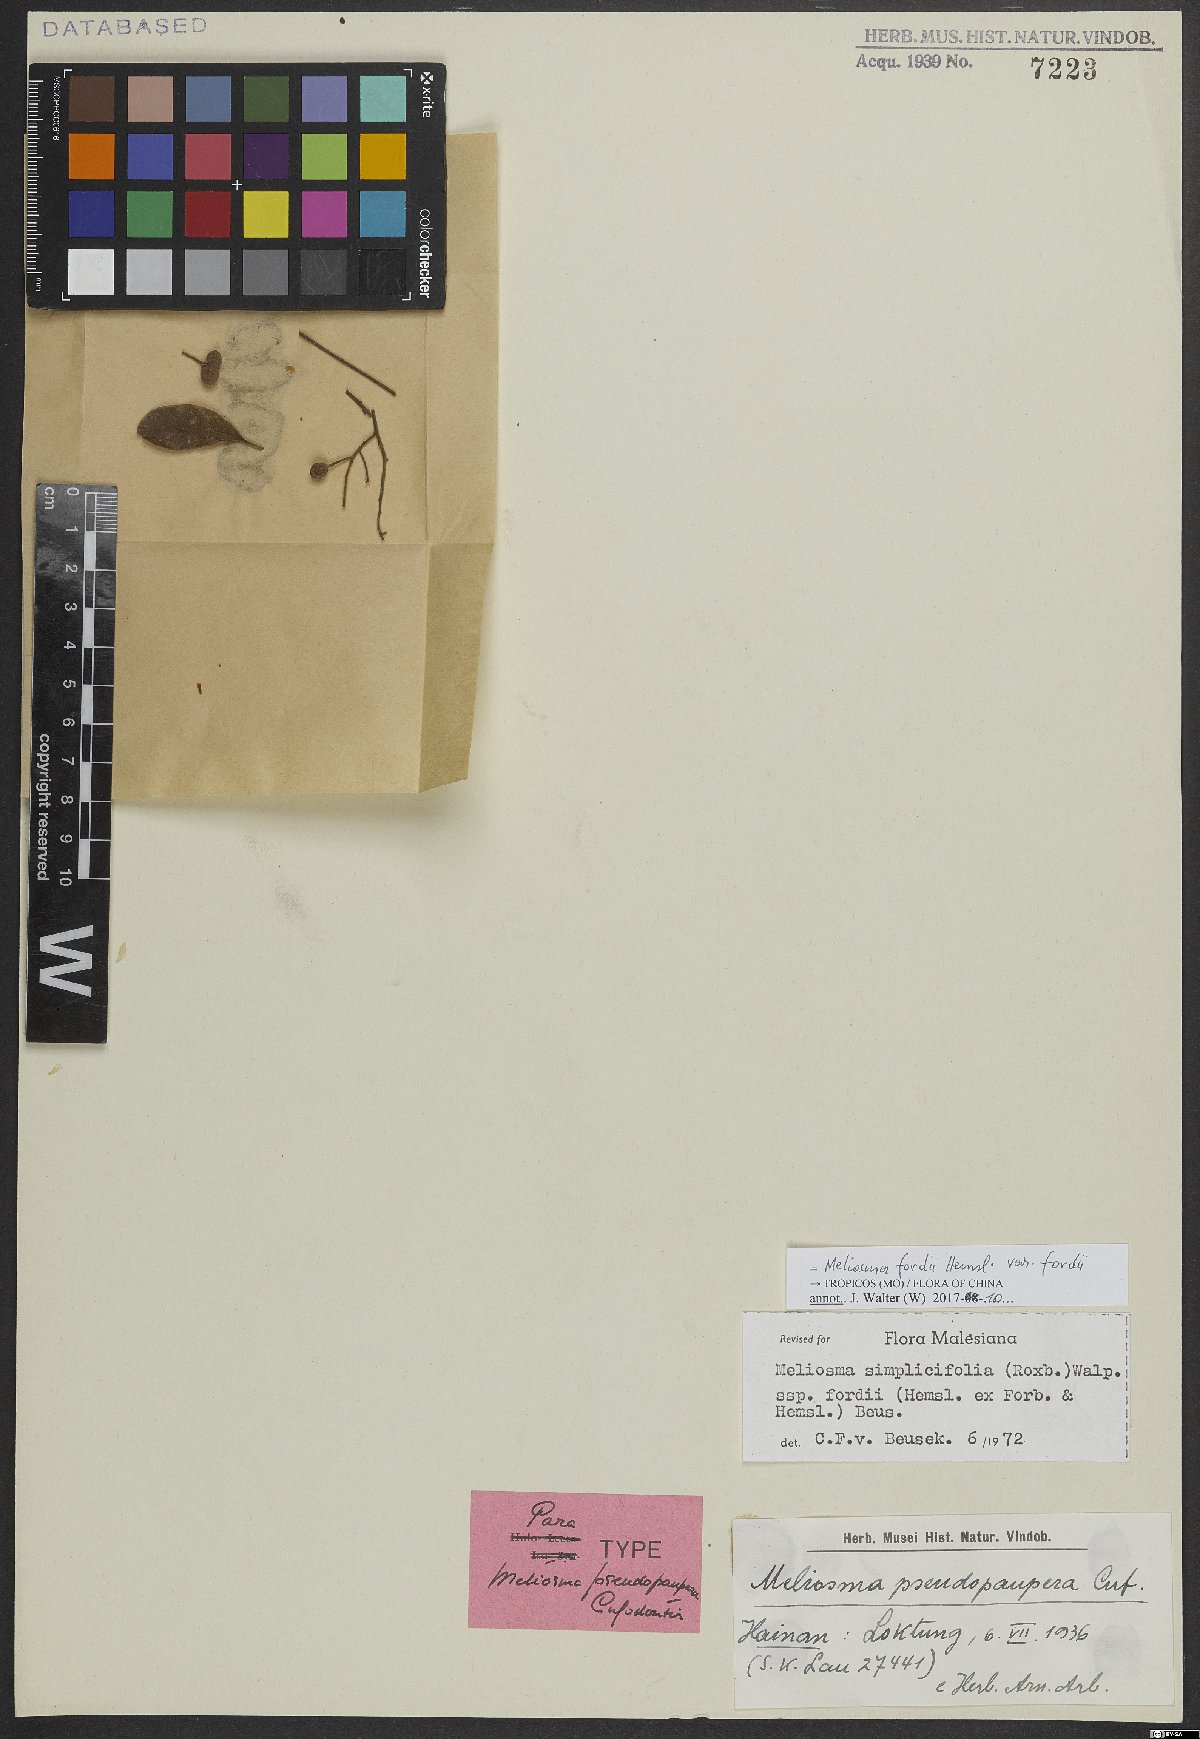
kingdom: Plantae
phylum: Tracheophyta
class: Magnoliopsida
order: Proteales
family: Sabiaceae
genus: Meliosma
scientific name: Meliosma fordii
